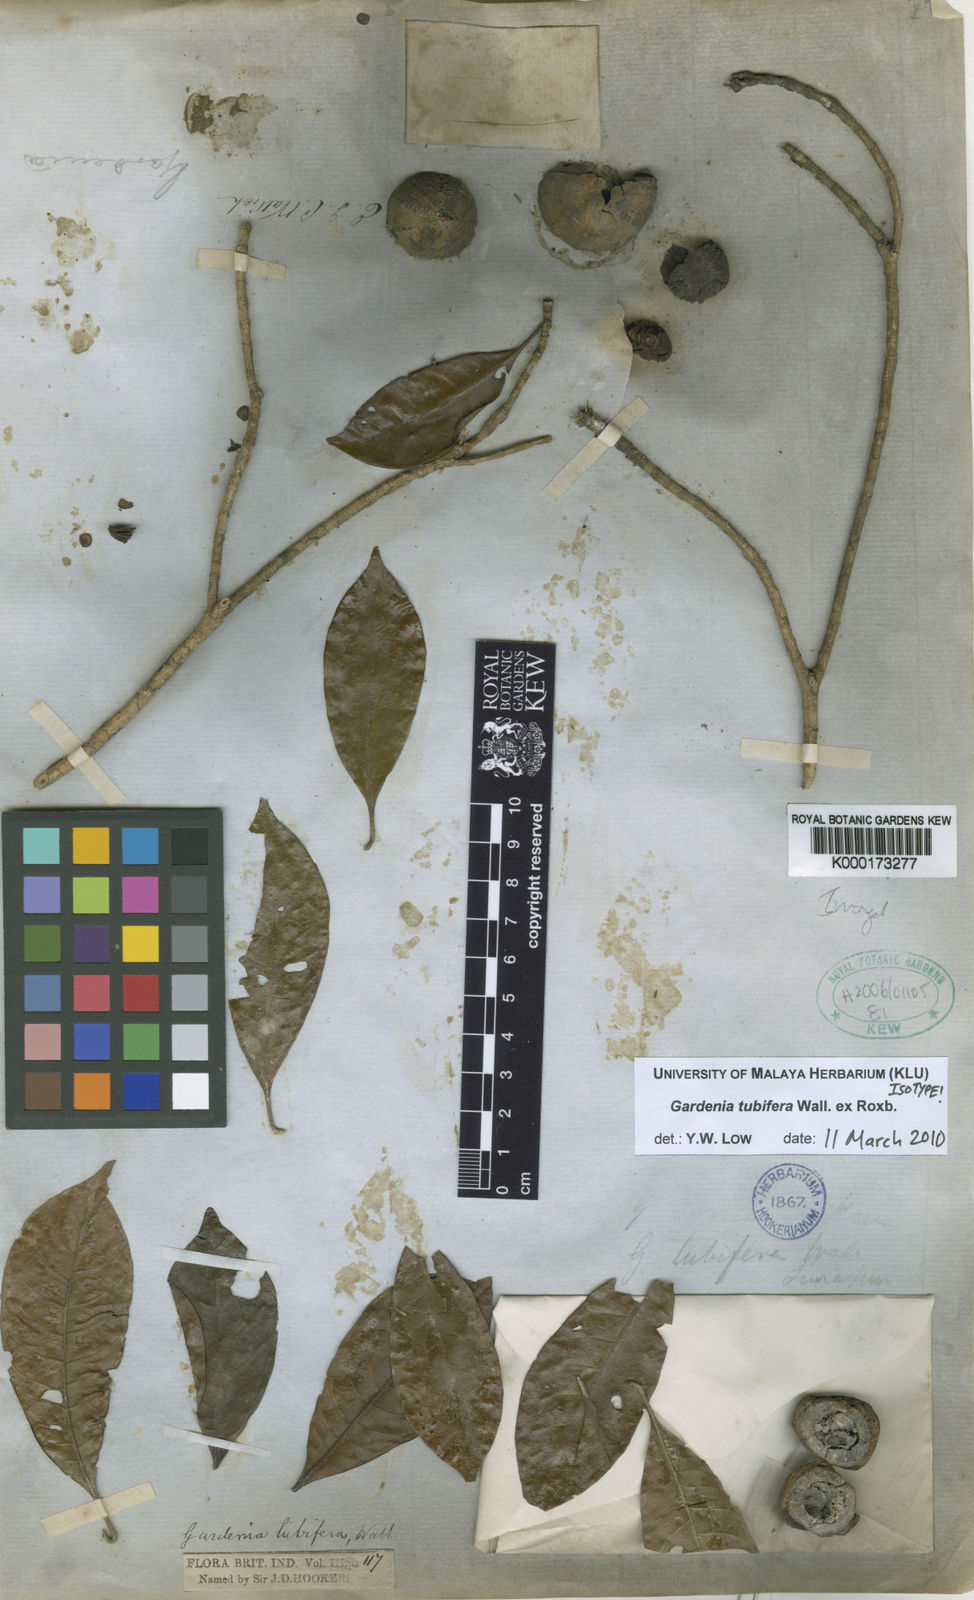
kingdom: Plantae
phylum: Tracheophyta
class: Magnoliopsida
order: Gentianales
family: Rubiaceae
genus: Gardenia
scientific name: Gardenia
